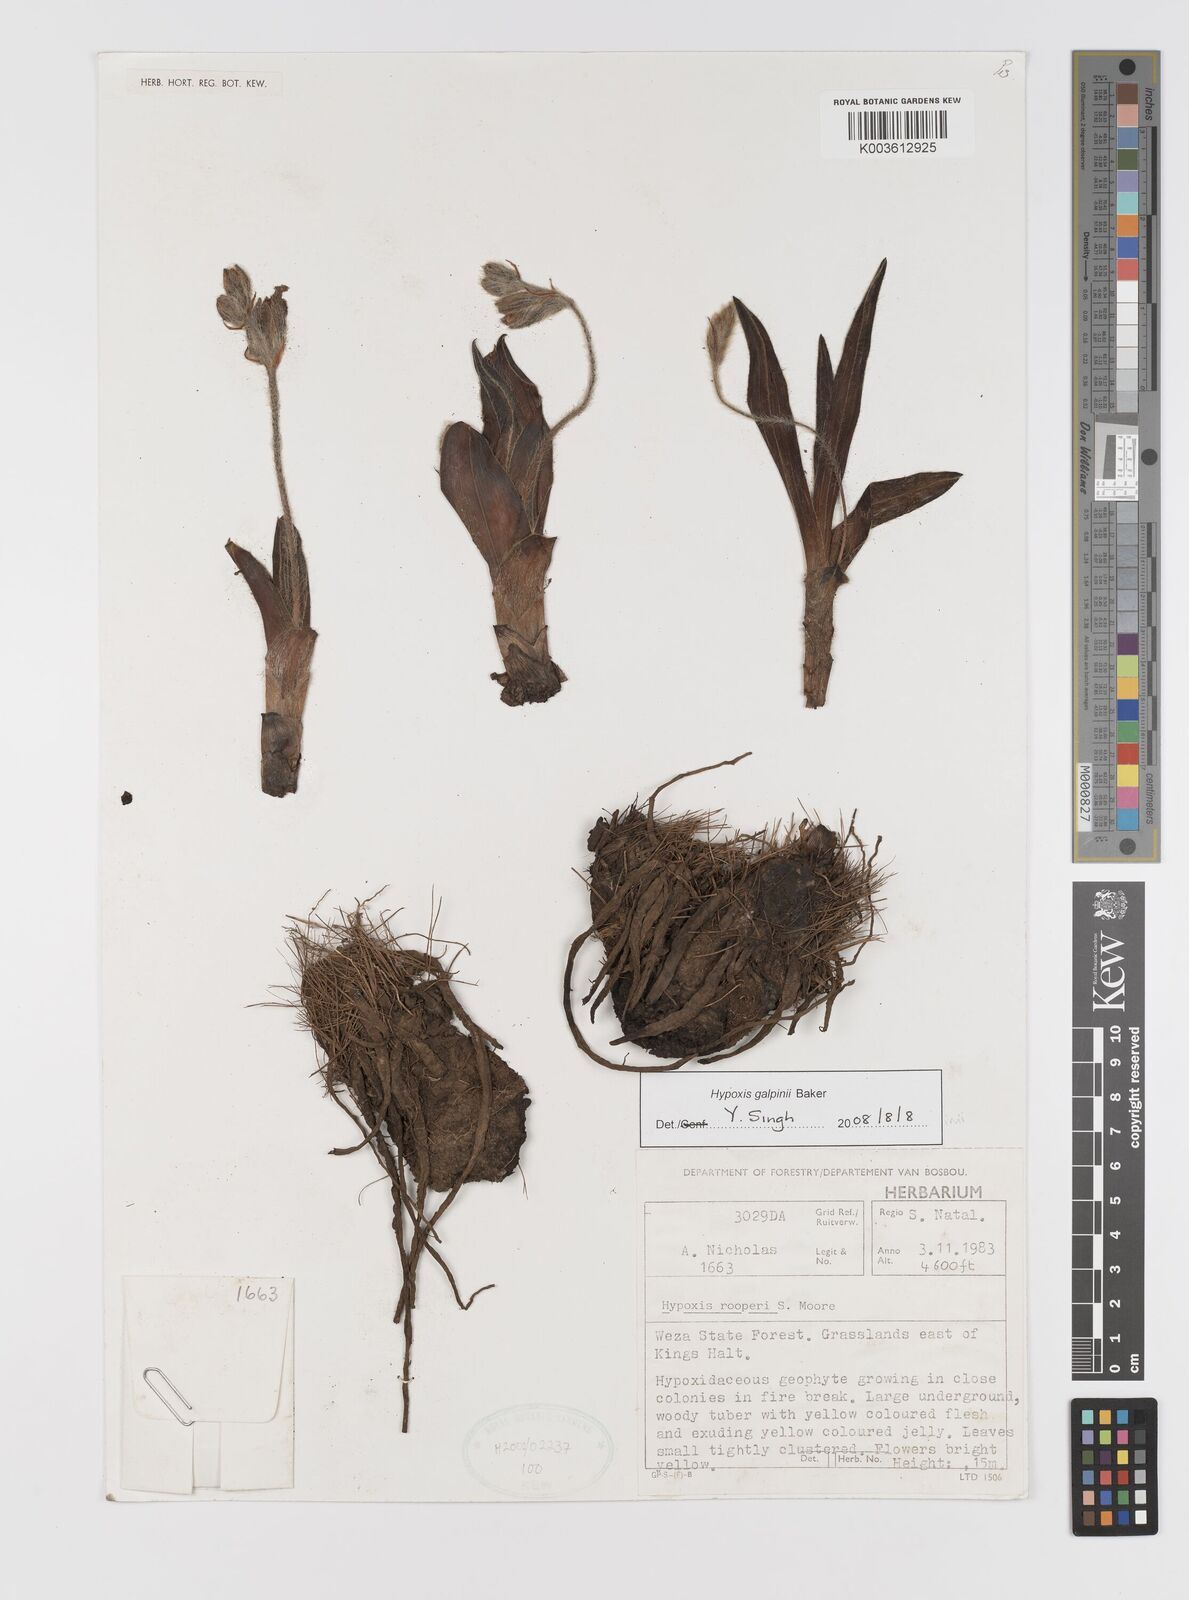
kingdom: Plantae
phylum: Tracheophyta
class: Liliopsida
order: Asparagales
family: Hypoxidaceae
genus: Hypoxis
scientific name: Hypoxis galpinii
